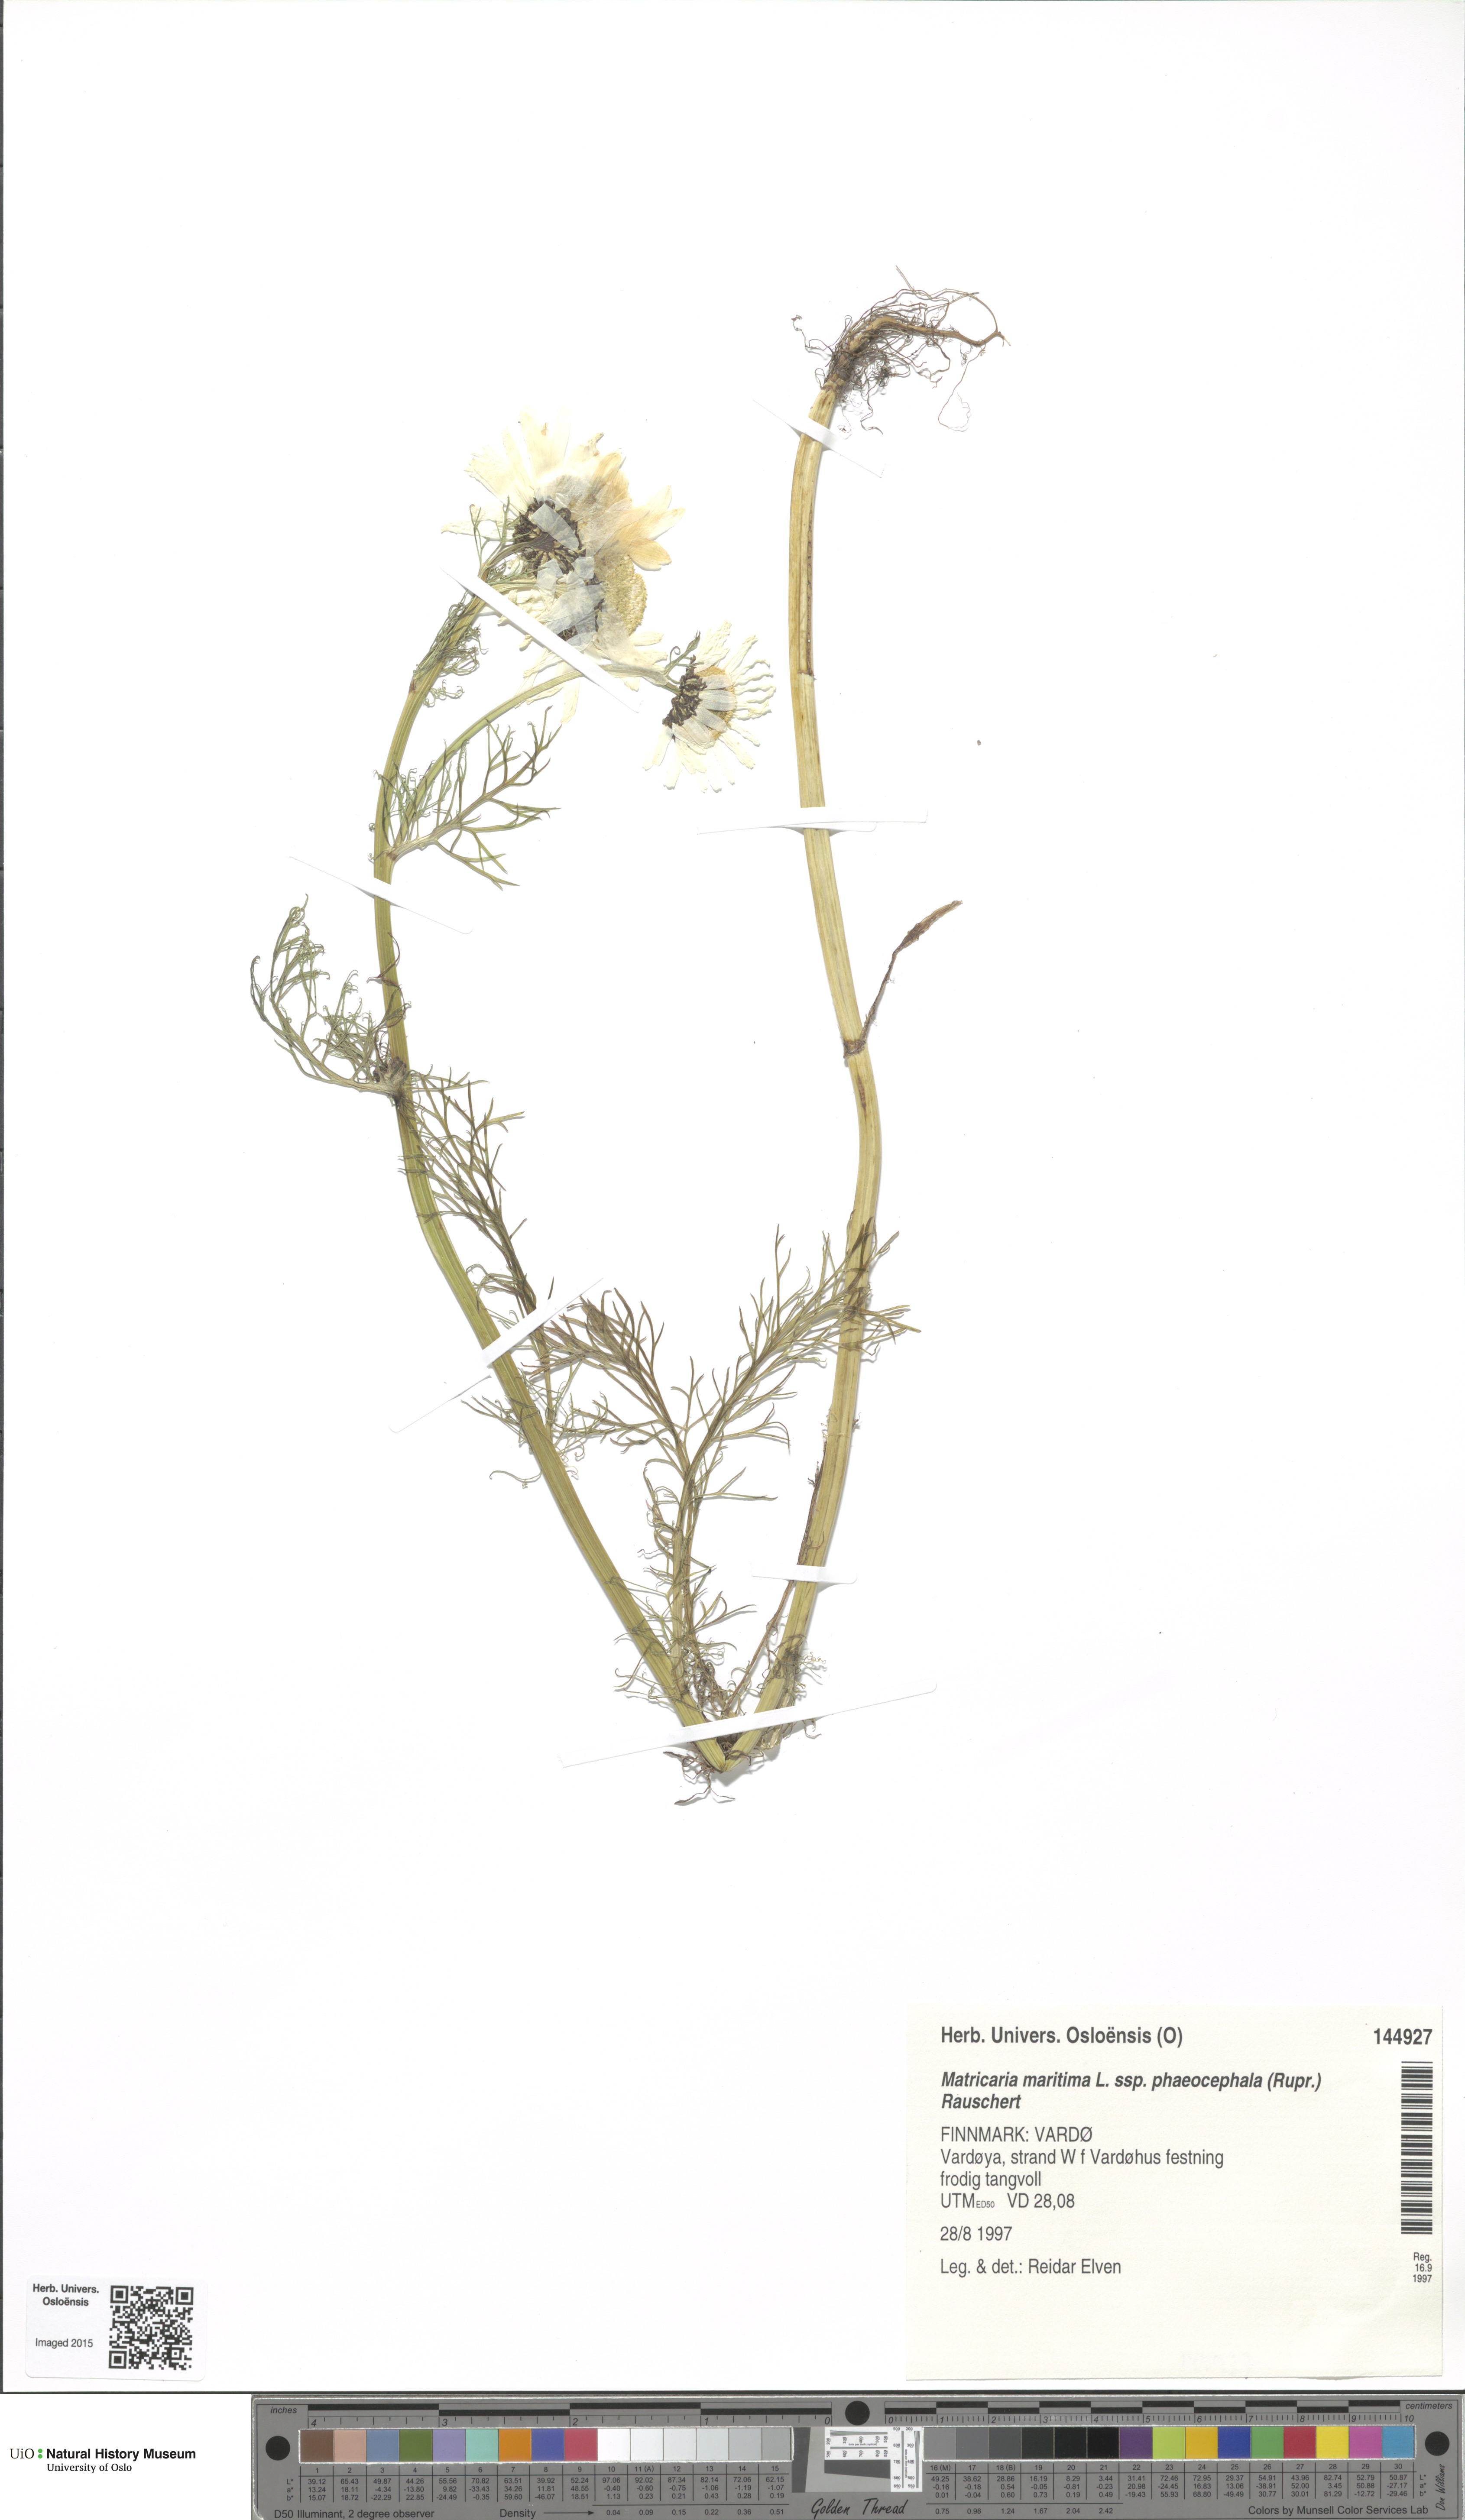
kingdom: Plantae
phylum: Tracheophyta
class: Magnoliopsida
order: Asterales
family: Asteraceae
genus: Tripleurospermum
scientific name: Tripleurospermum hookeri
